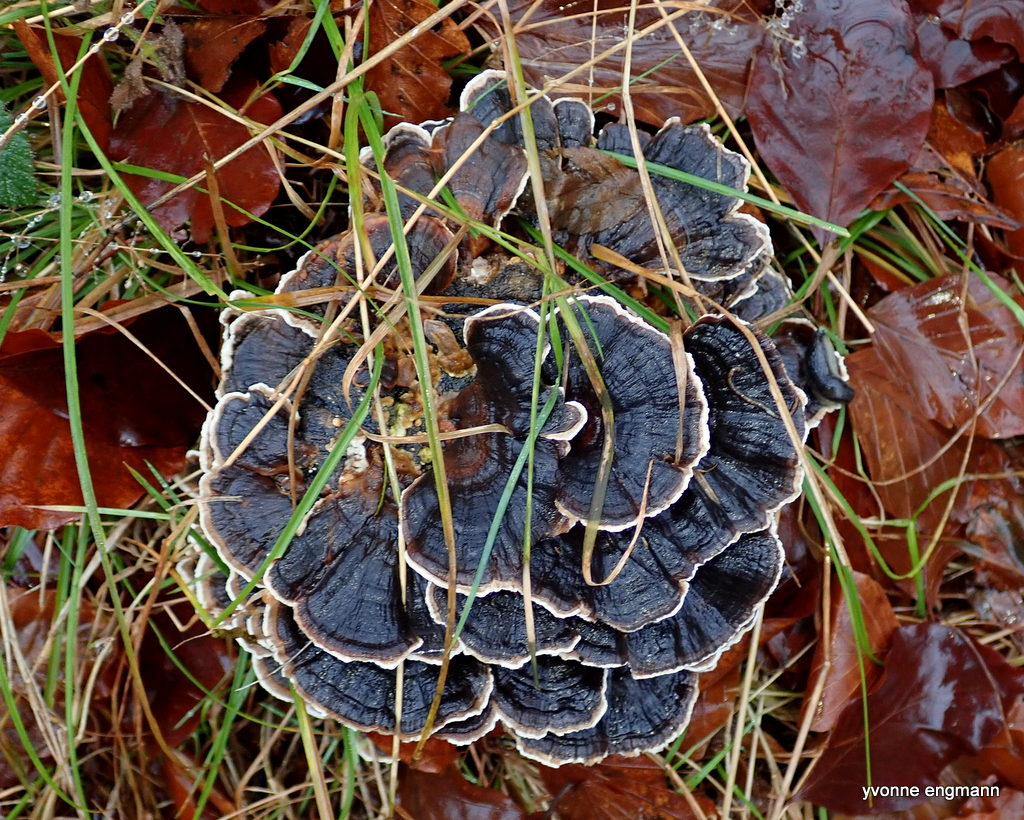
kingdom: Fungi
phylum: Basidiomycota
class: Agaricomycetes
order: Polyporales
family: Polyporaceae
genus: Trametes
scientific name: Trametes versicolor
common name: broget læderporesvamp
